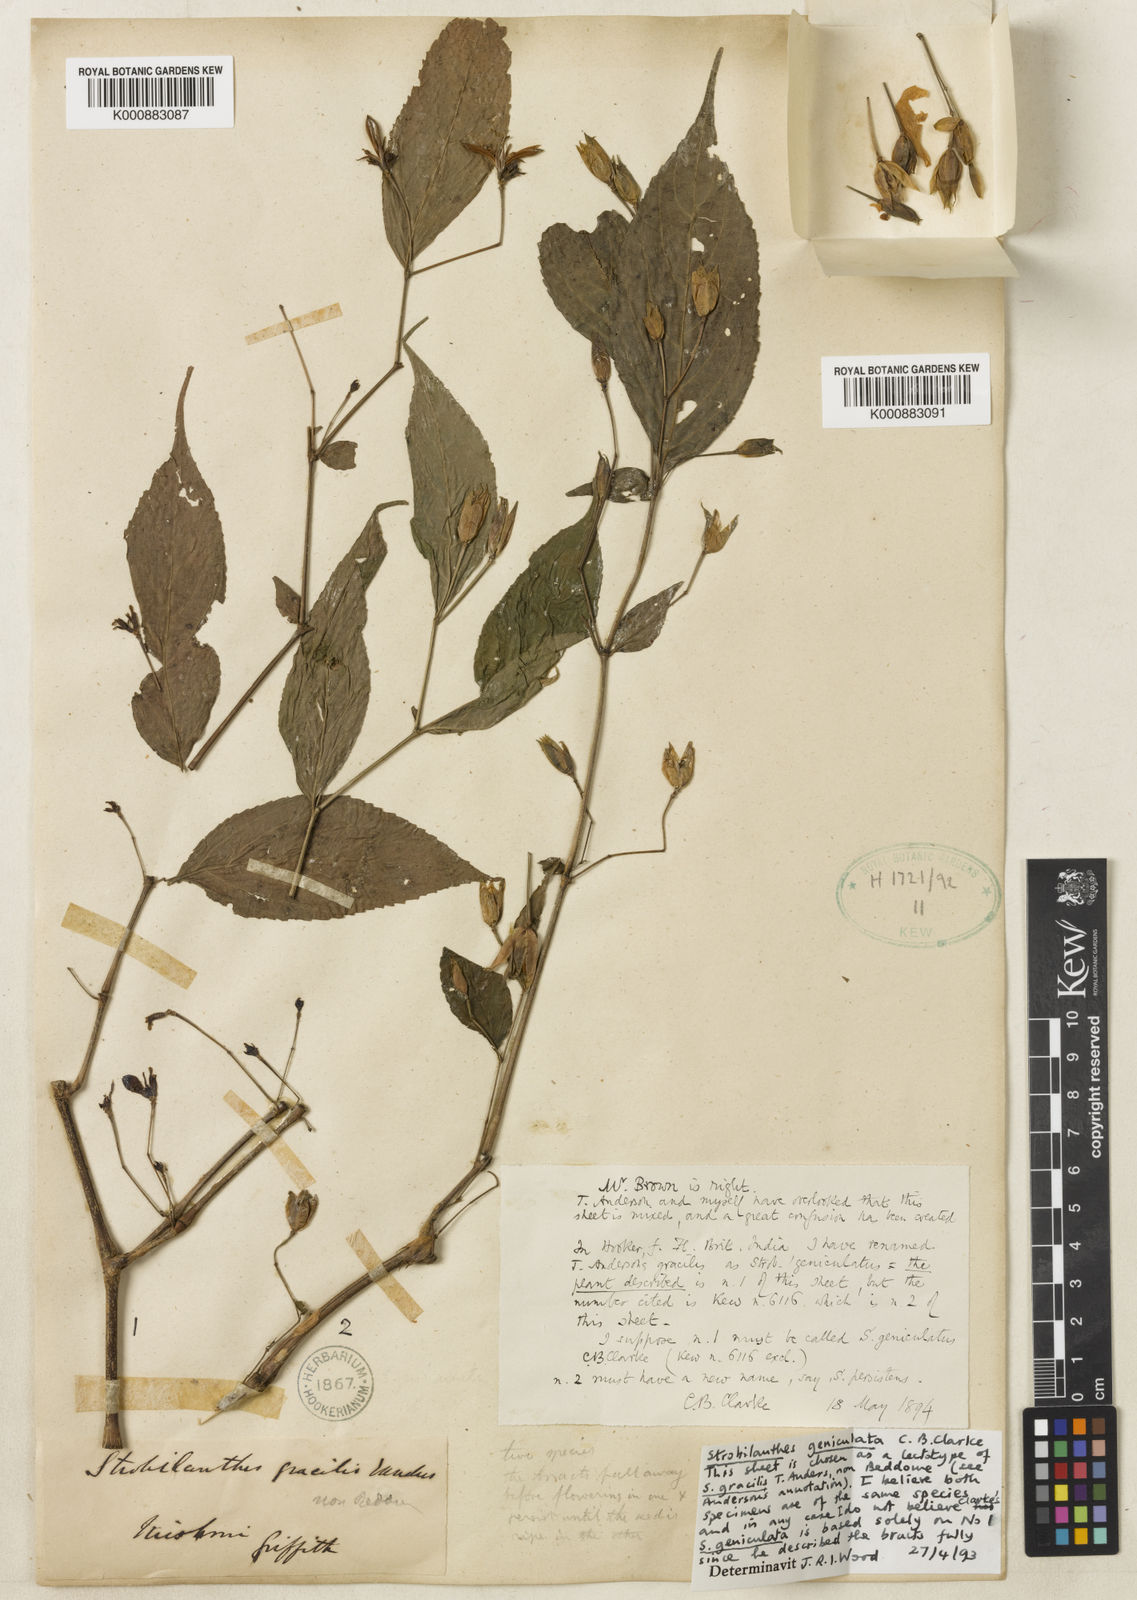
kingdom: Plantae
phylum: Tracheophyta
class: Magnoliopsida
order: Lamiales
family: Acanthaceae
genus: Strobilanthes
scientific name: Strobilanthes dimorphotricha
